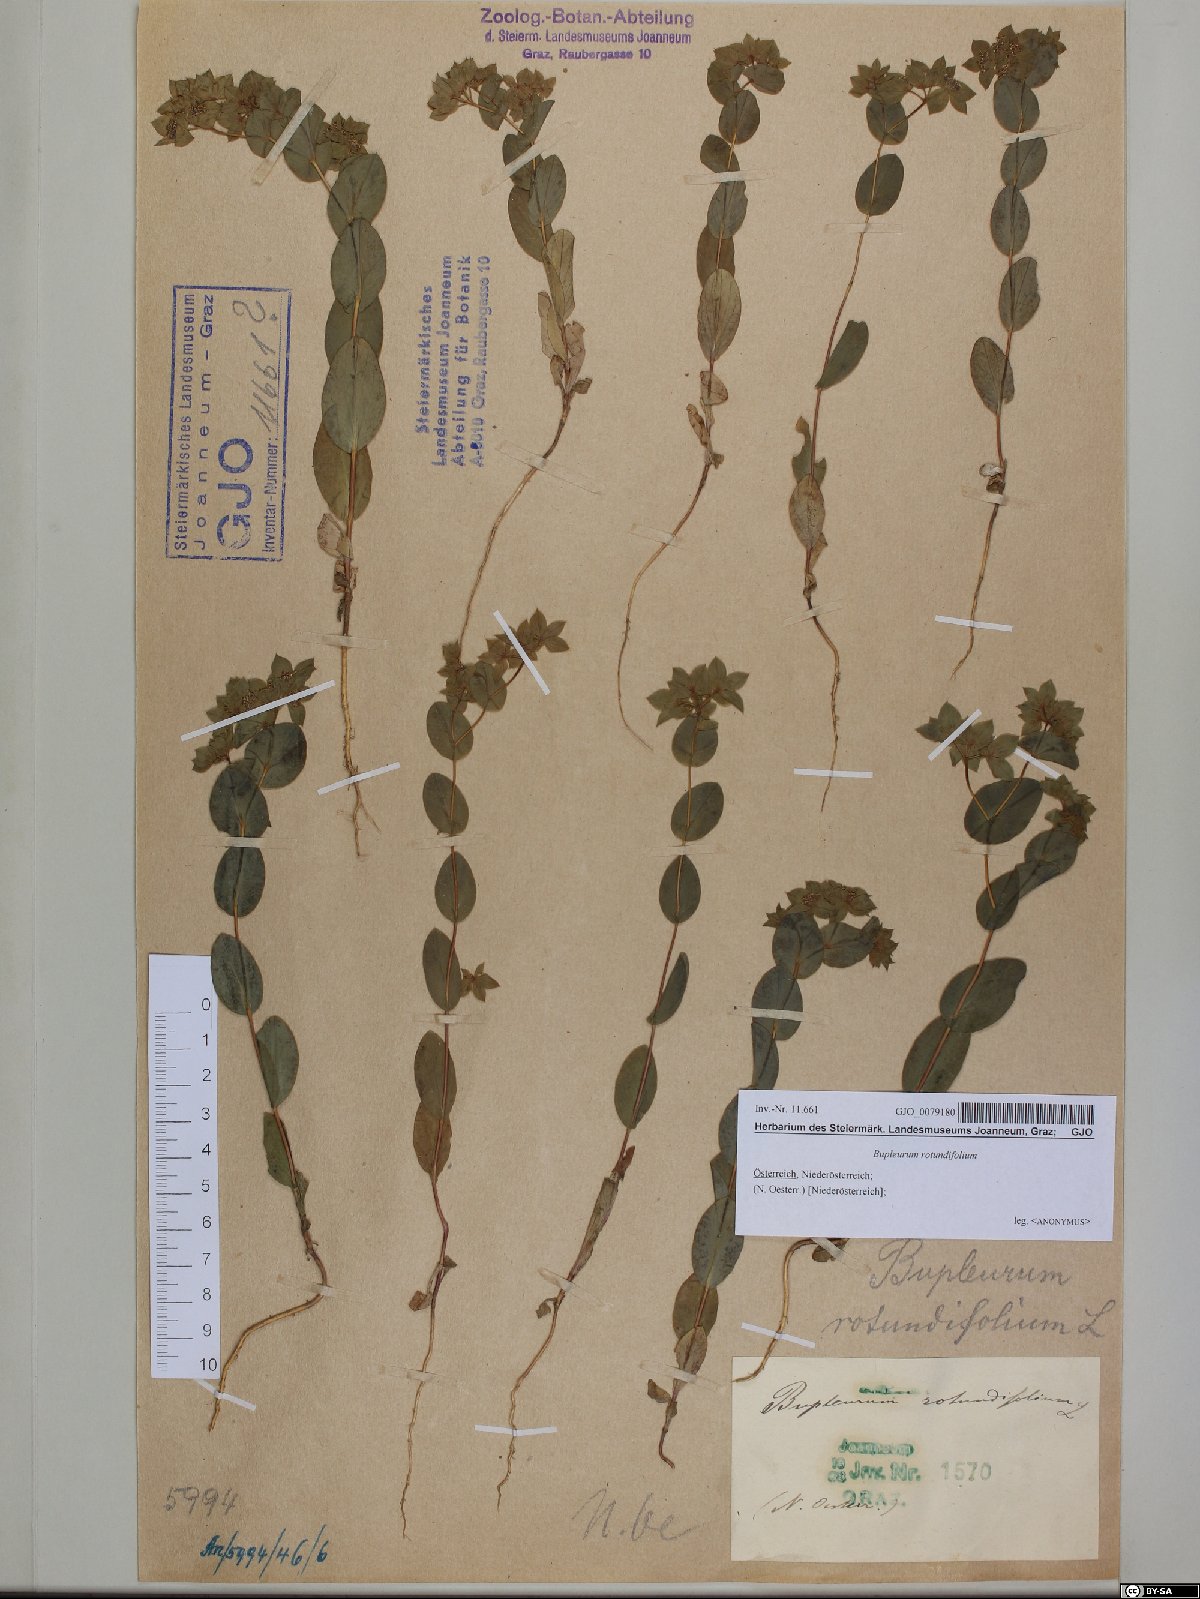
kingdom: Plantae
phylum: Tracheophyta
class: Magnoliopsida
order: Apiales
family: Apiaceae
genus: Bupleurum
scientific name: Bupleurum rotundifolium
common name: Thorow-wax
